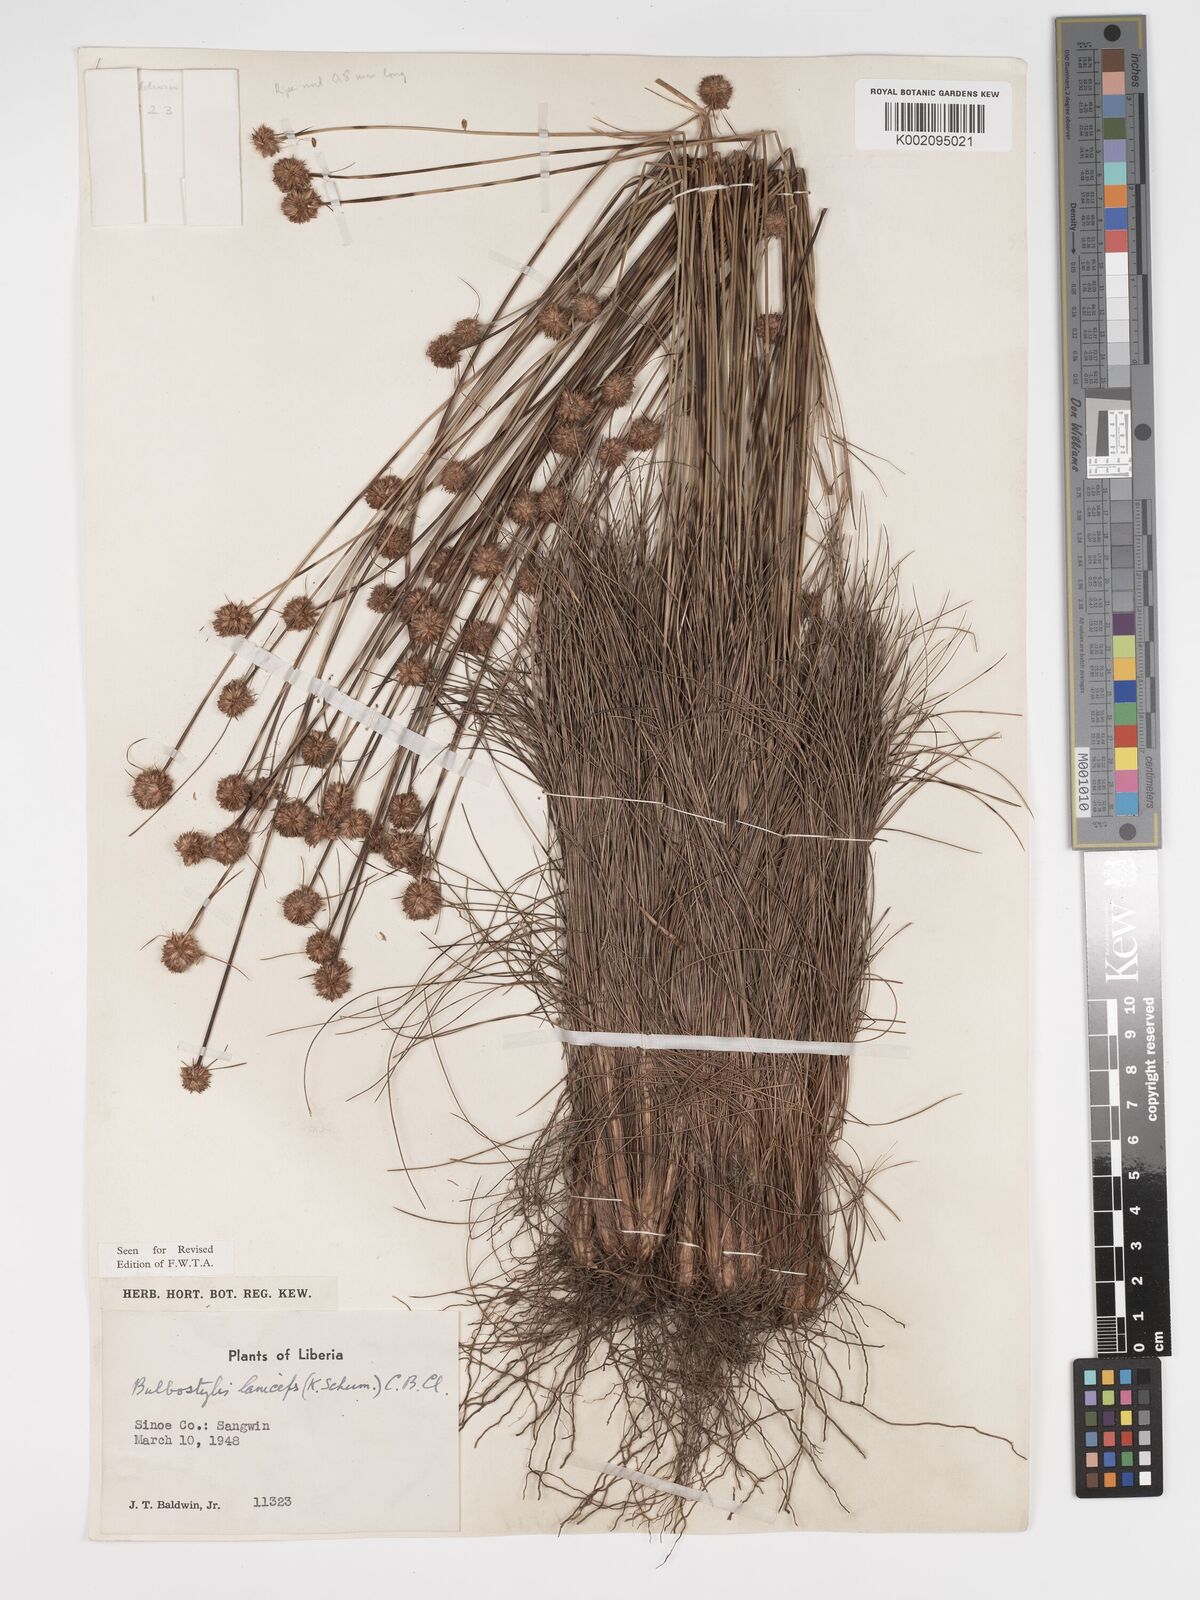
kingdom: Plantae
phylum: Tracheophyta
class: Liliopsida
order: Poales
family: Cyperaceae
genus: Bulbostylis
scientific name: Bulbostylis laniceps
